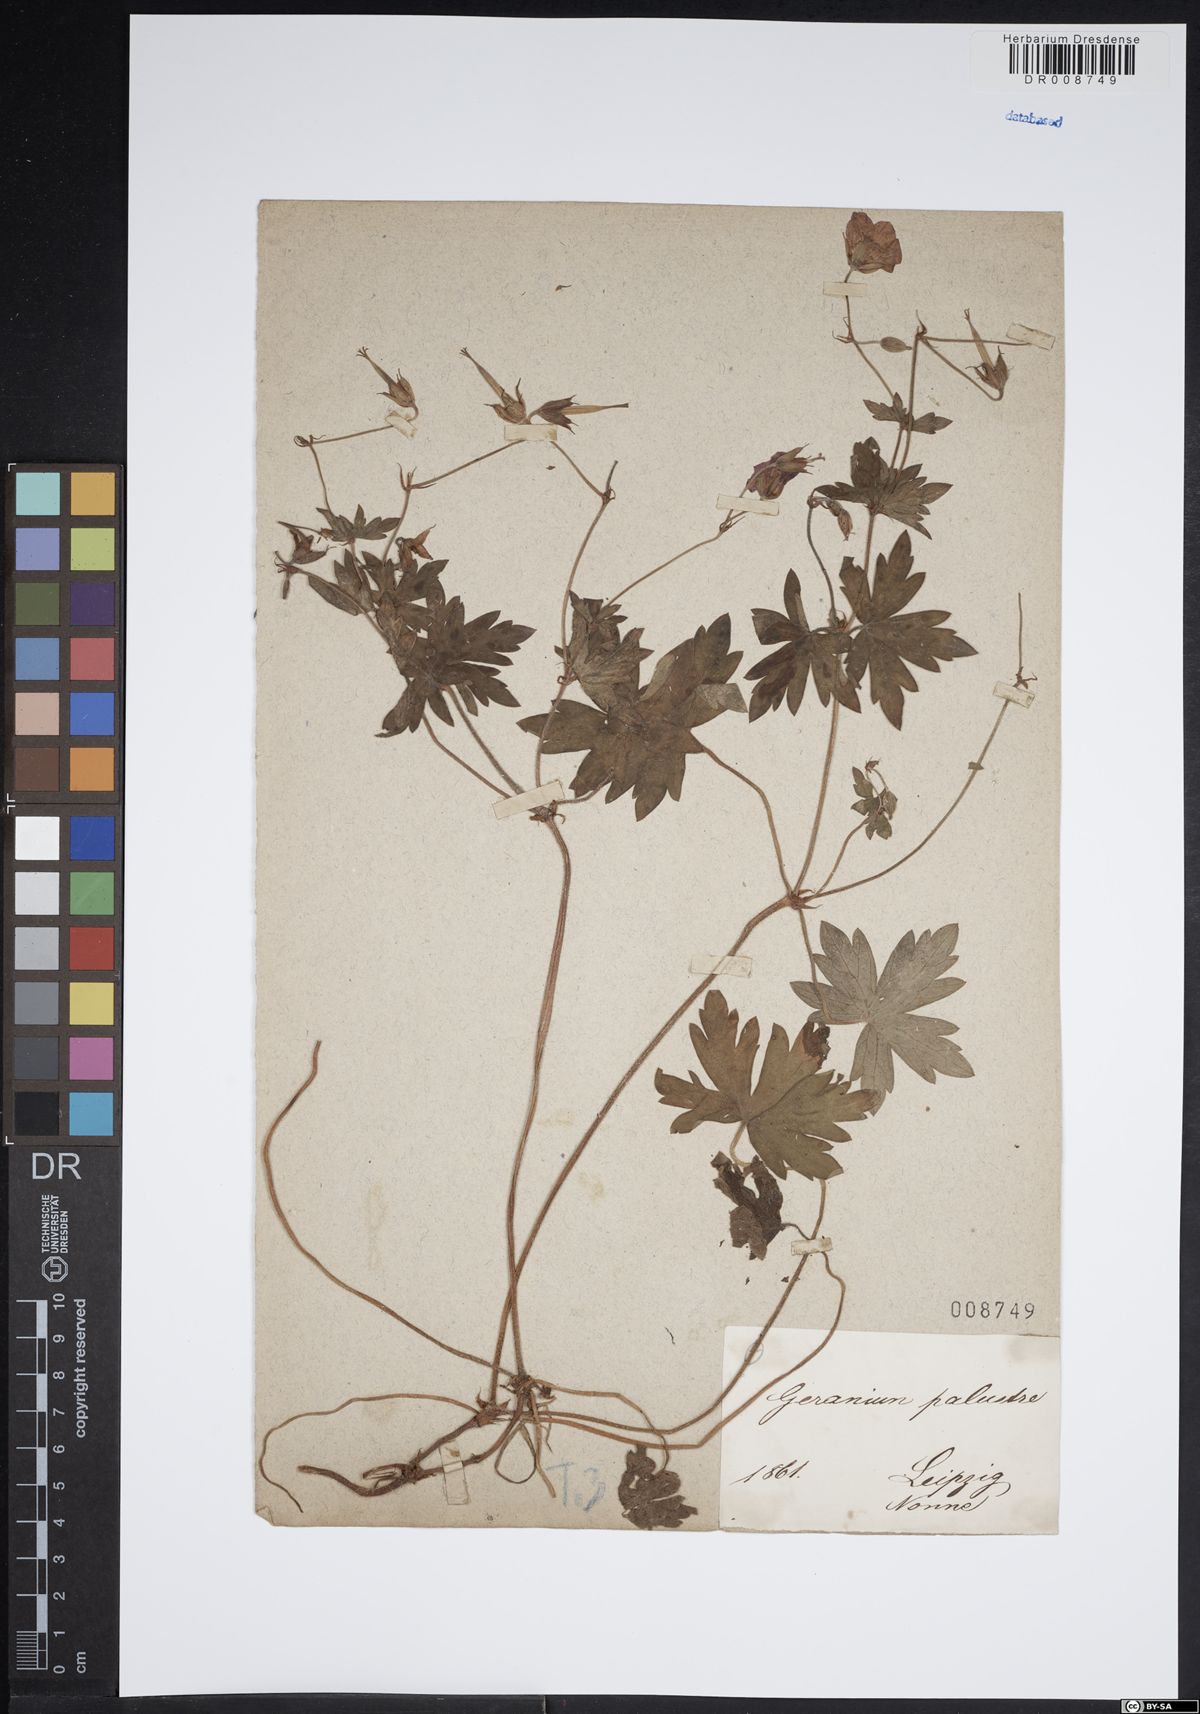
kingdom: Plantae
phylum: Tracheophyta
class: Magnoliopsida
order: Geraniales
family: Geraniaceae
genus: Geranium
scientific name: Geranium palustre
